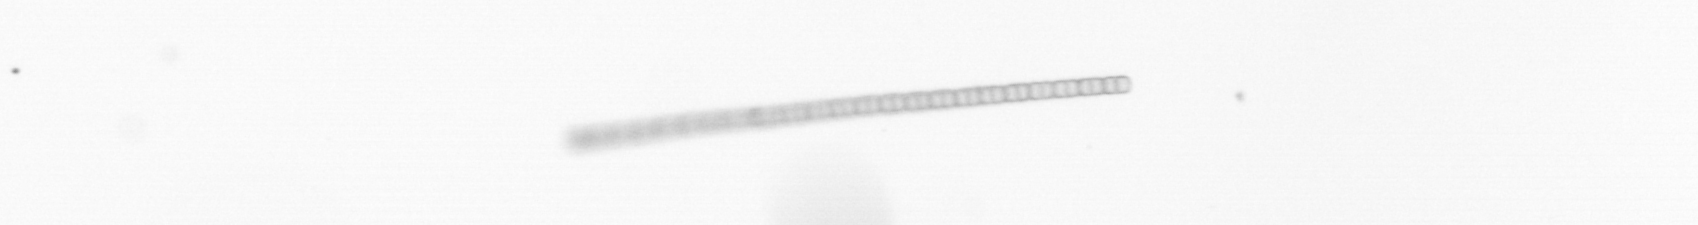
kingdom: Chromista
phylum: Ochrophyta
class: Bacillariophyceae
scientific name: Bacillariophyceae
